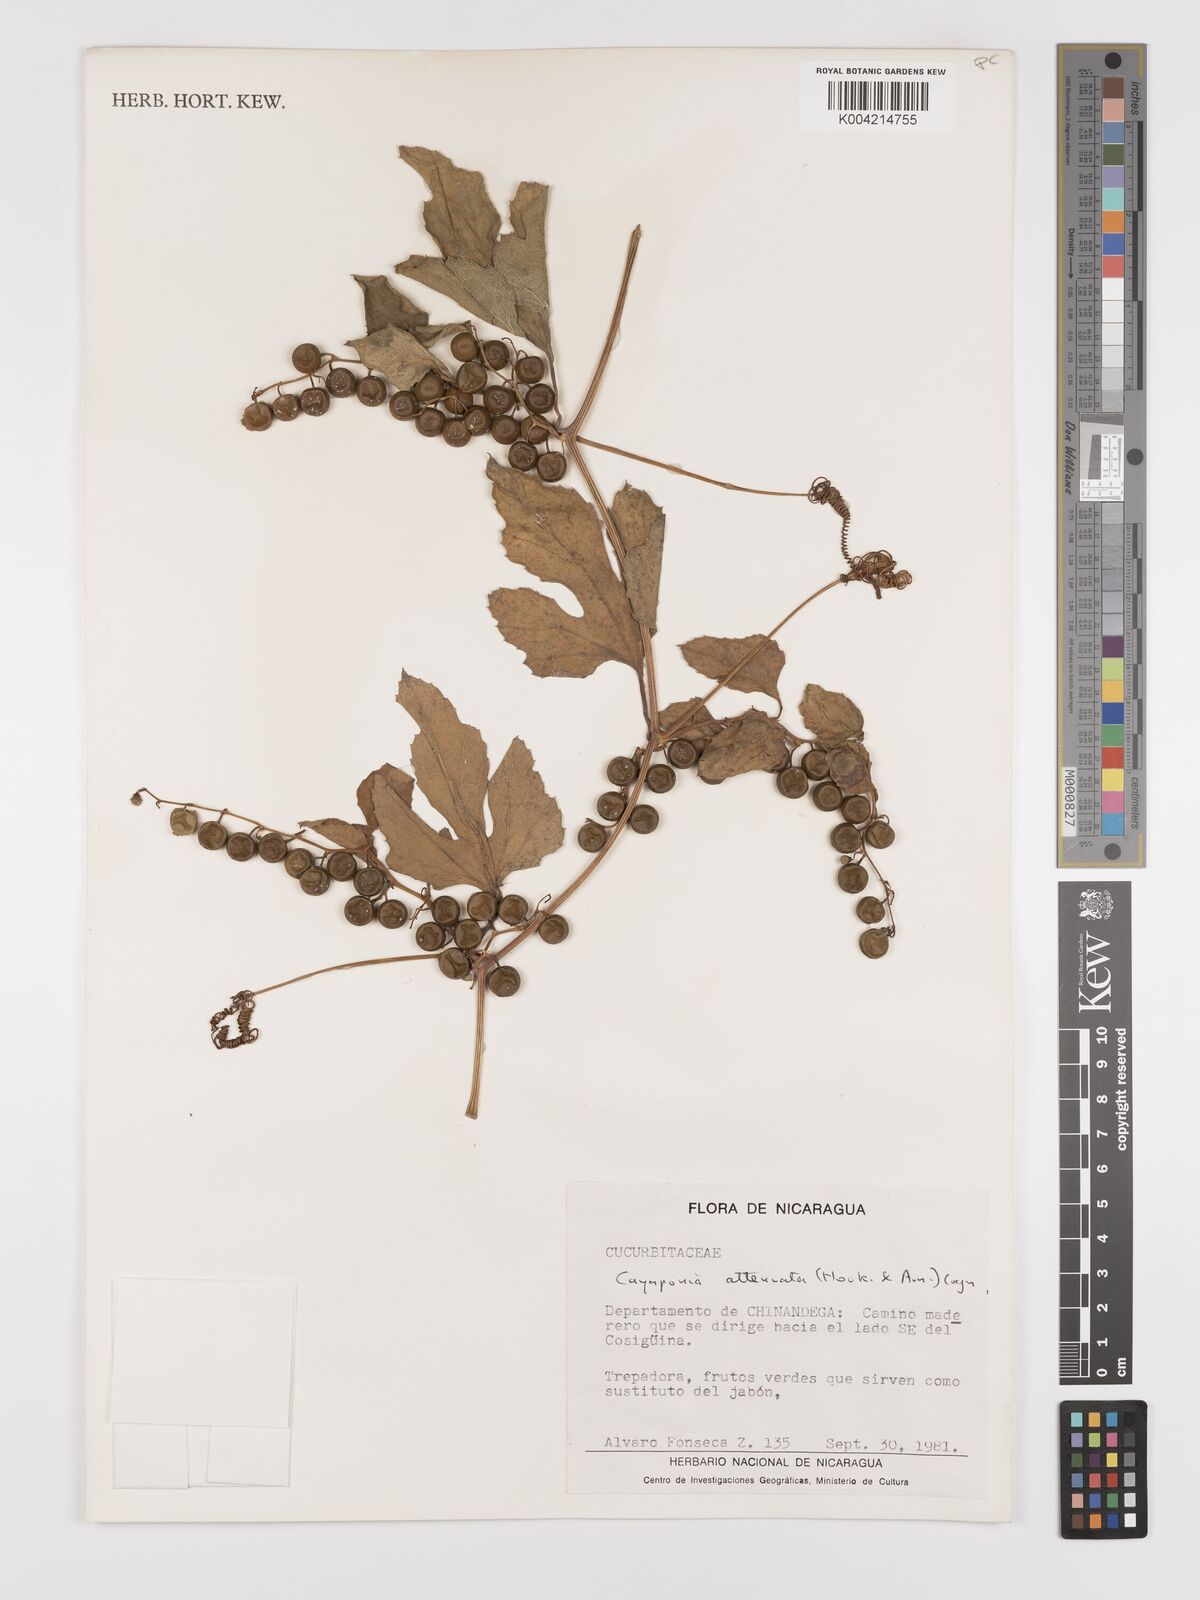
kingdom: Plantae
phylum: Tracheophyta
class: Magnoliopsida
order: Cucurbitales
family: Cucurbitaceae
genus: Cayaponia
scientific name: Cayaponia attenuata
